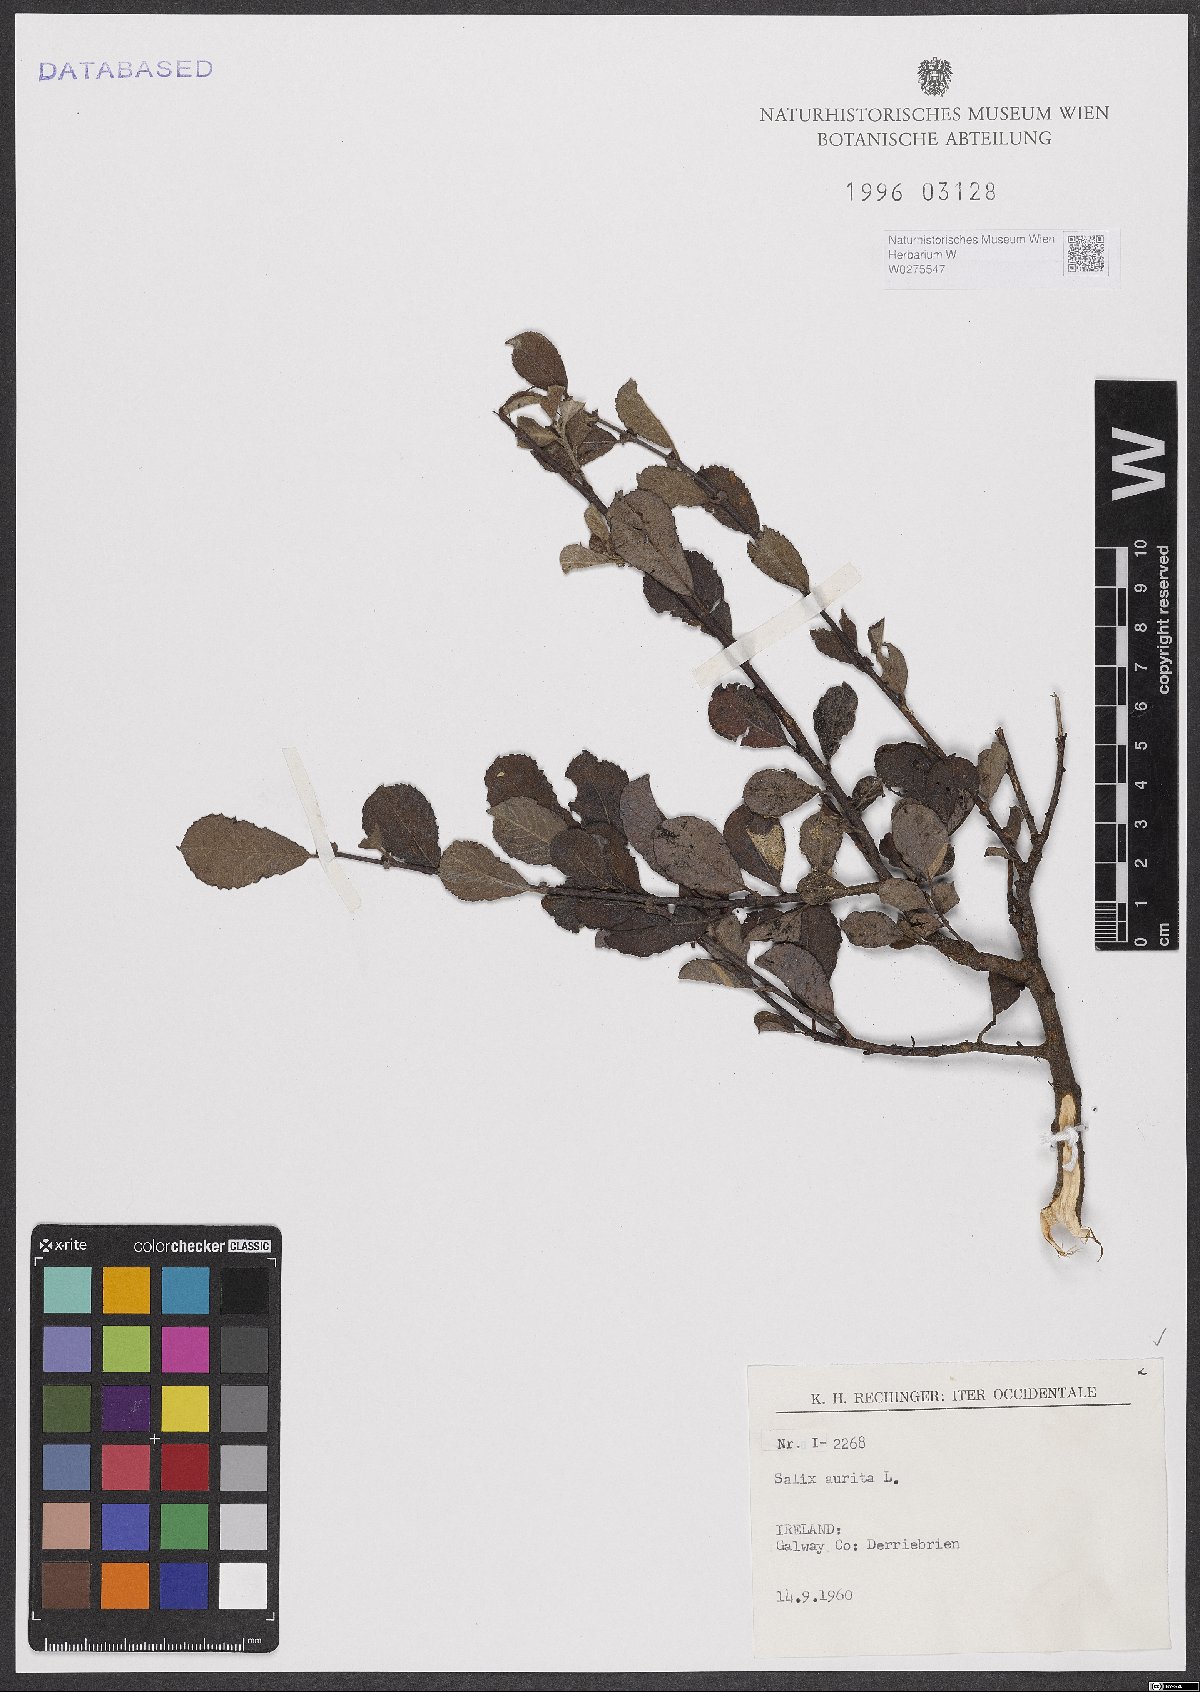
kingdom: Plantae
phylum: Tracheophyta
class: Magnoliopsida
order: Malpighiales
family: Salicaceae
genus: Salix
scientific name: Salix aurita
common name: Eared willow
